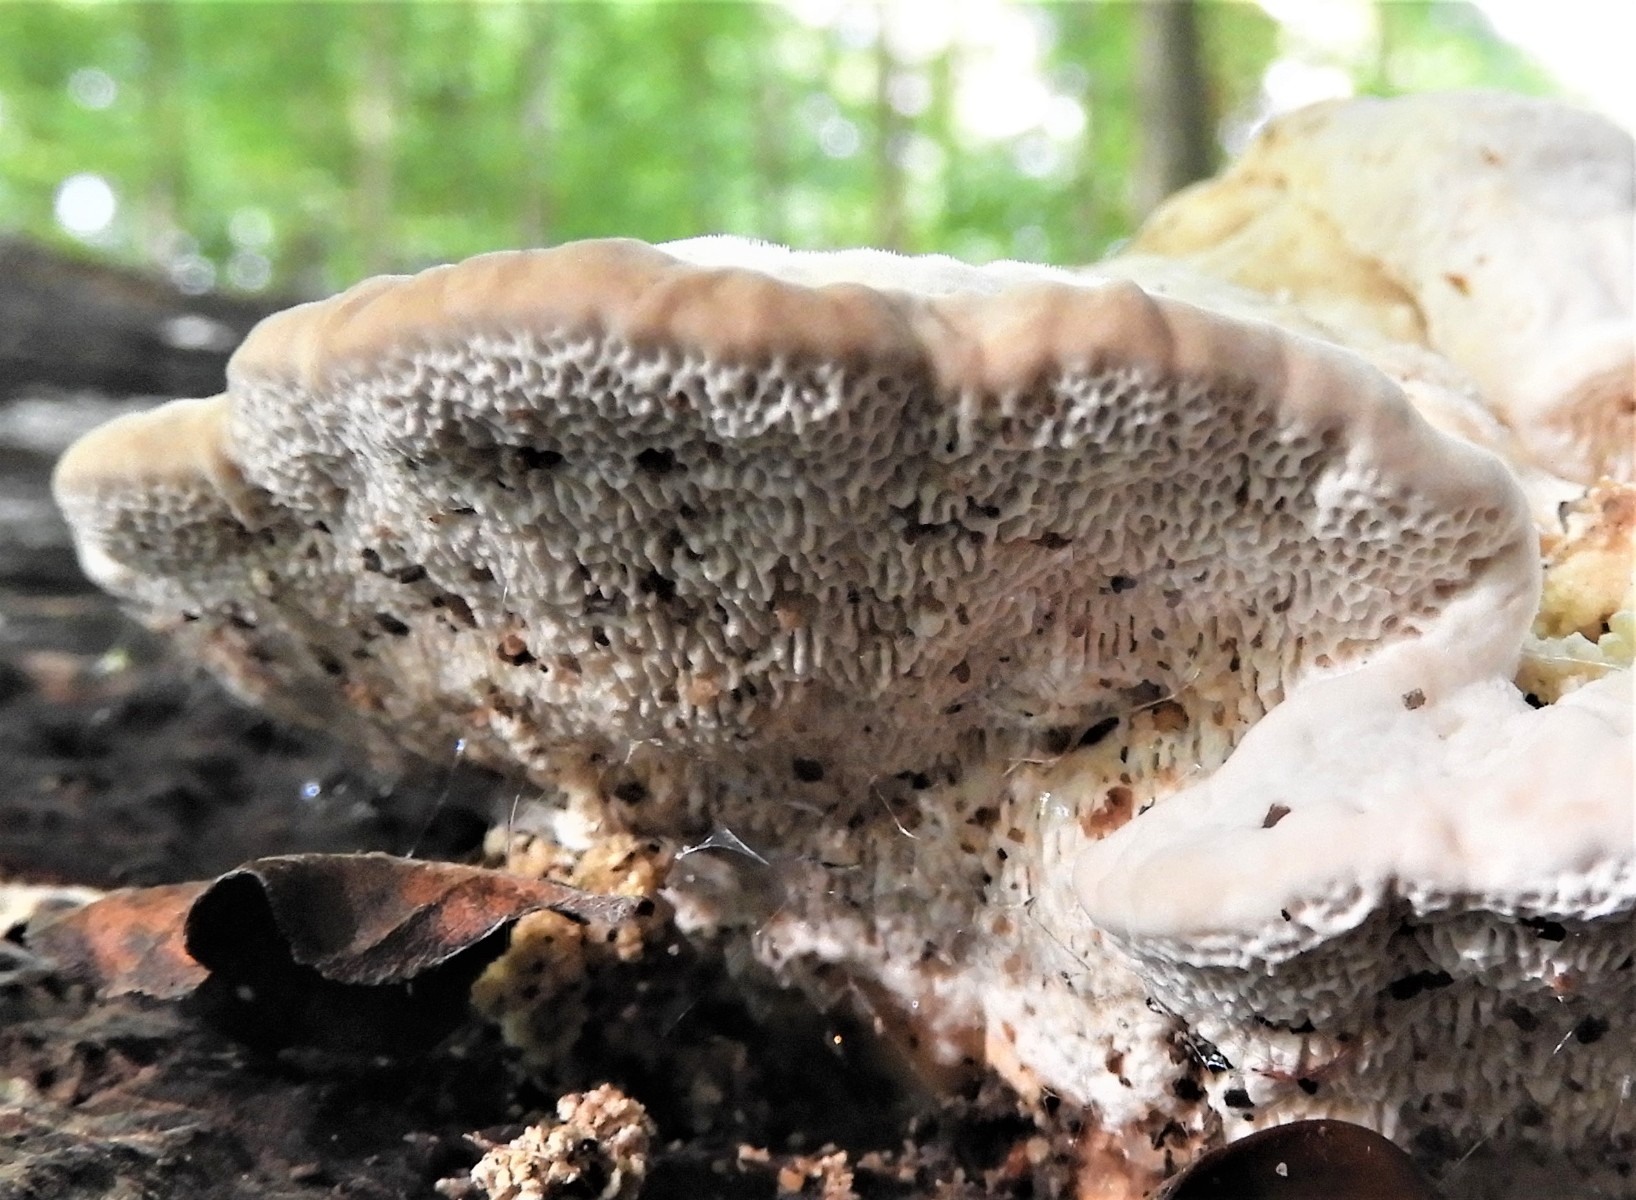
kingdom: Fungi
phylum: Basidiomycota
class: Agaricomycetes
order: Polyporales
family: Polyporaceae
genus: Trametes
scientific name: Trametes gibbosa
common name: puklet læderporesvamp
